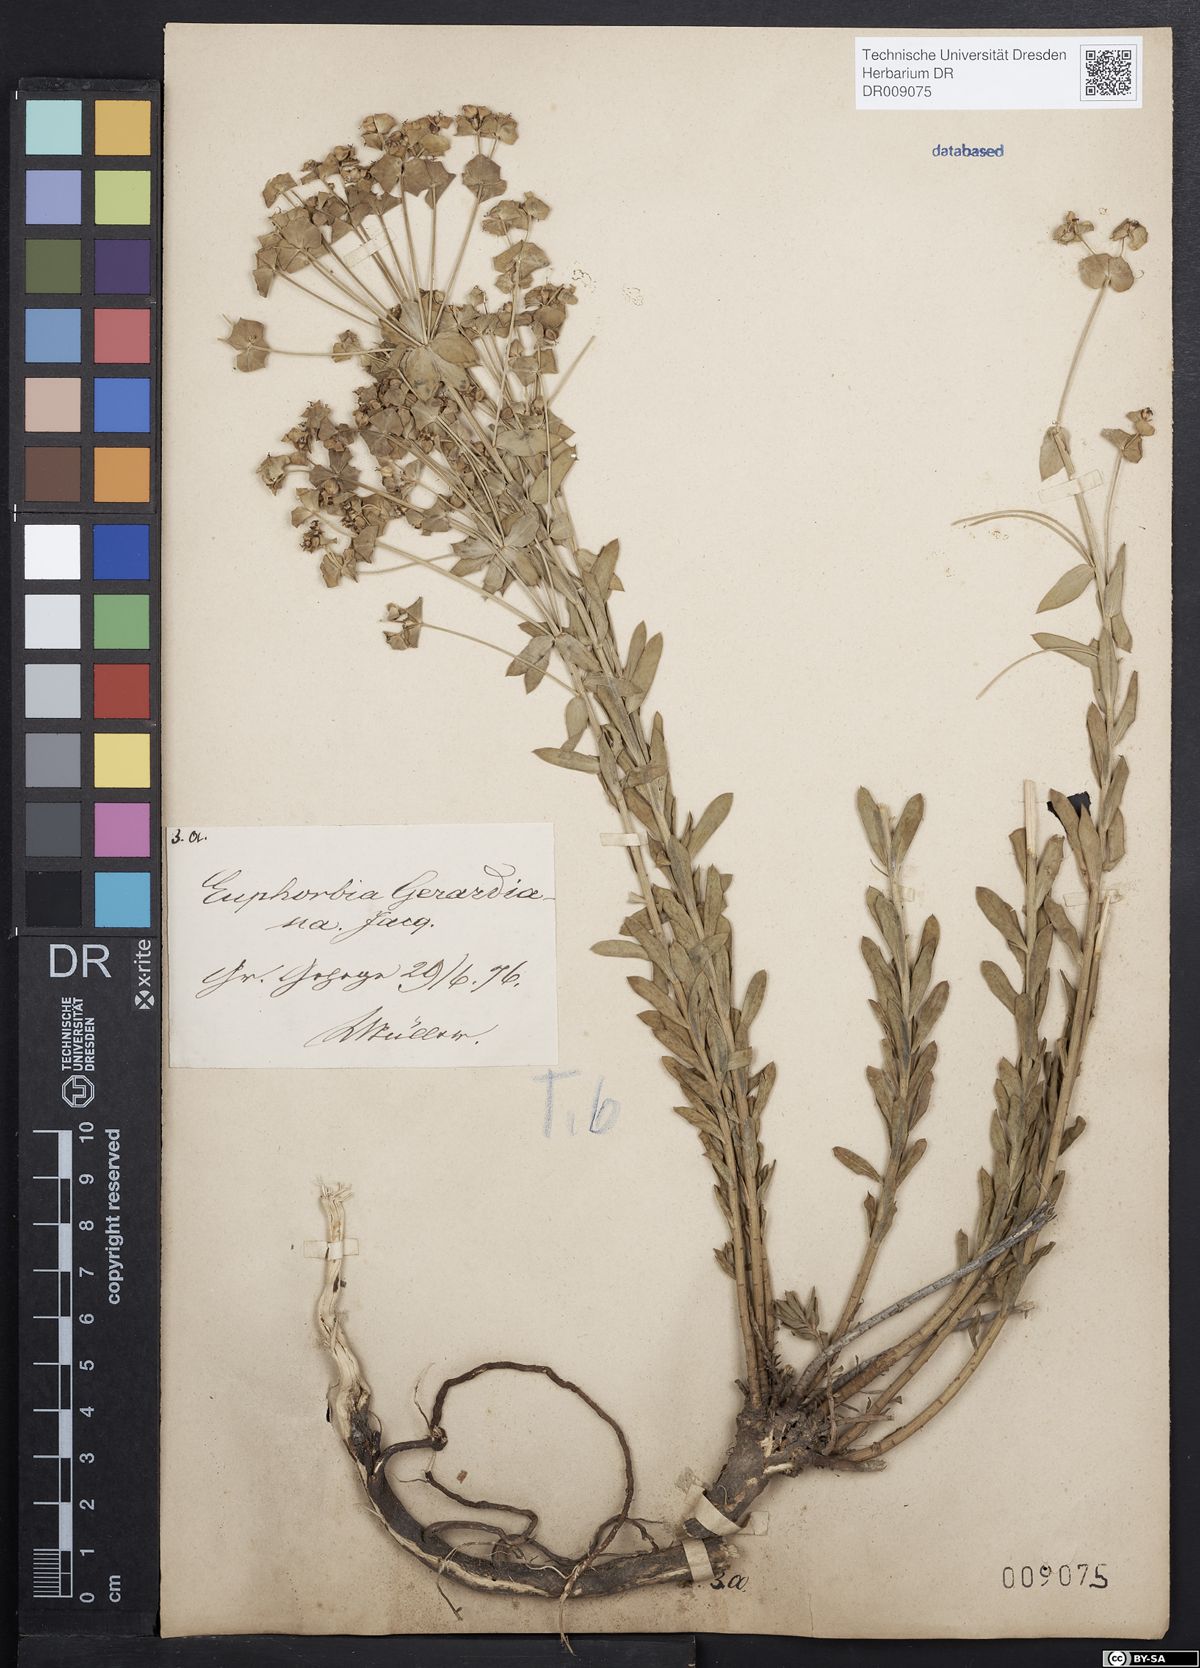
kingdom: Plantae
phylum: Tracheophyta
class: Magnoliopsida
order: Malpighiales
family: Euphorbiaceae
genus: Euphorbia
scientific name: Euphorbia seguieriana
